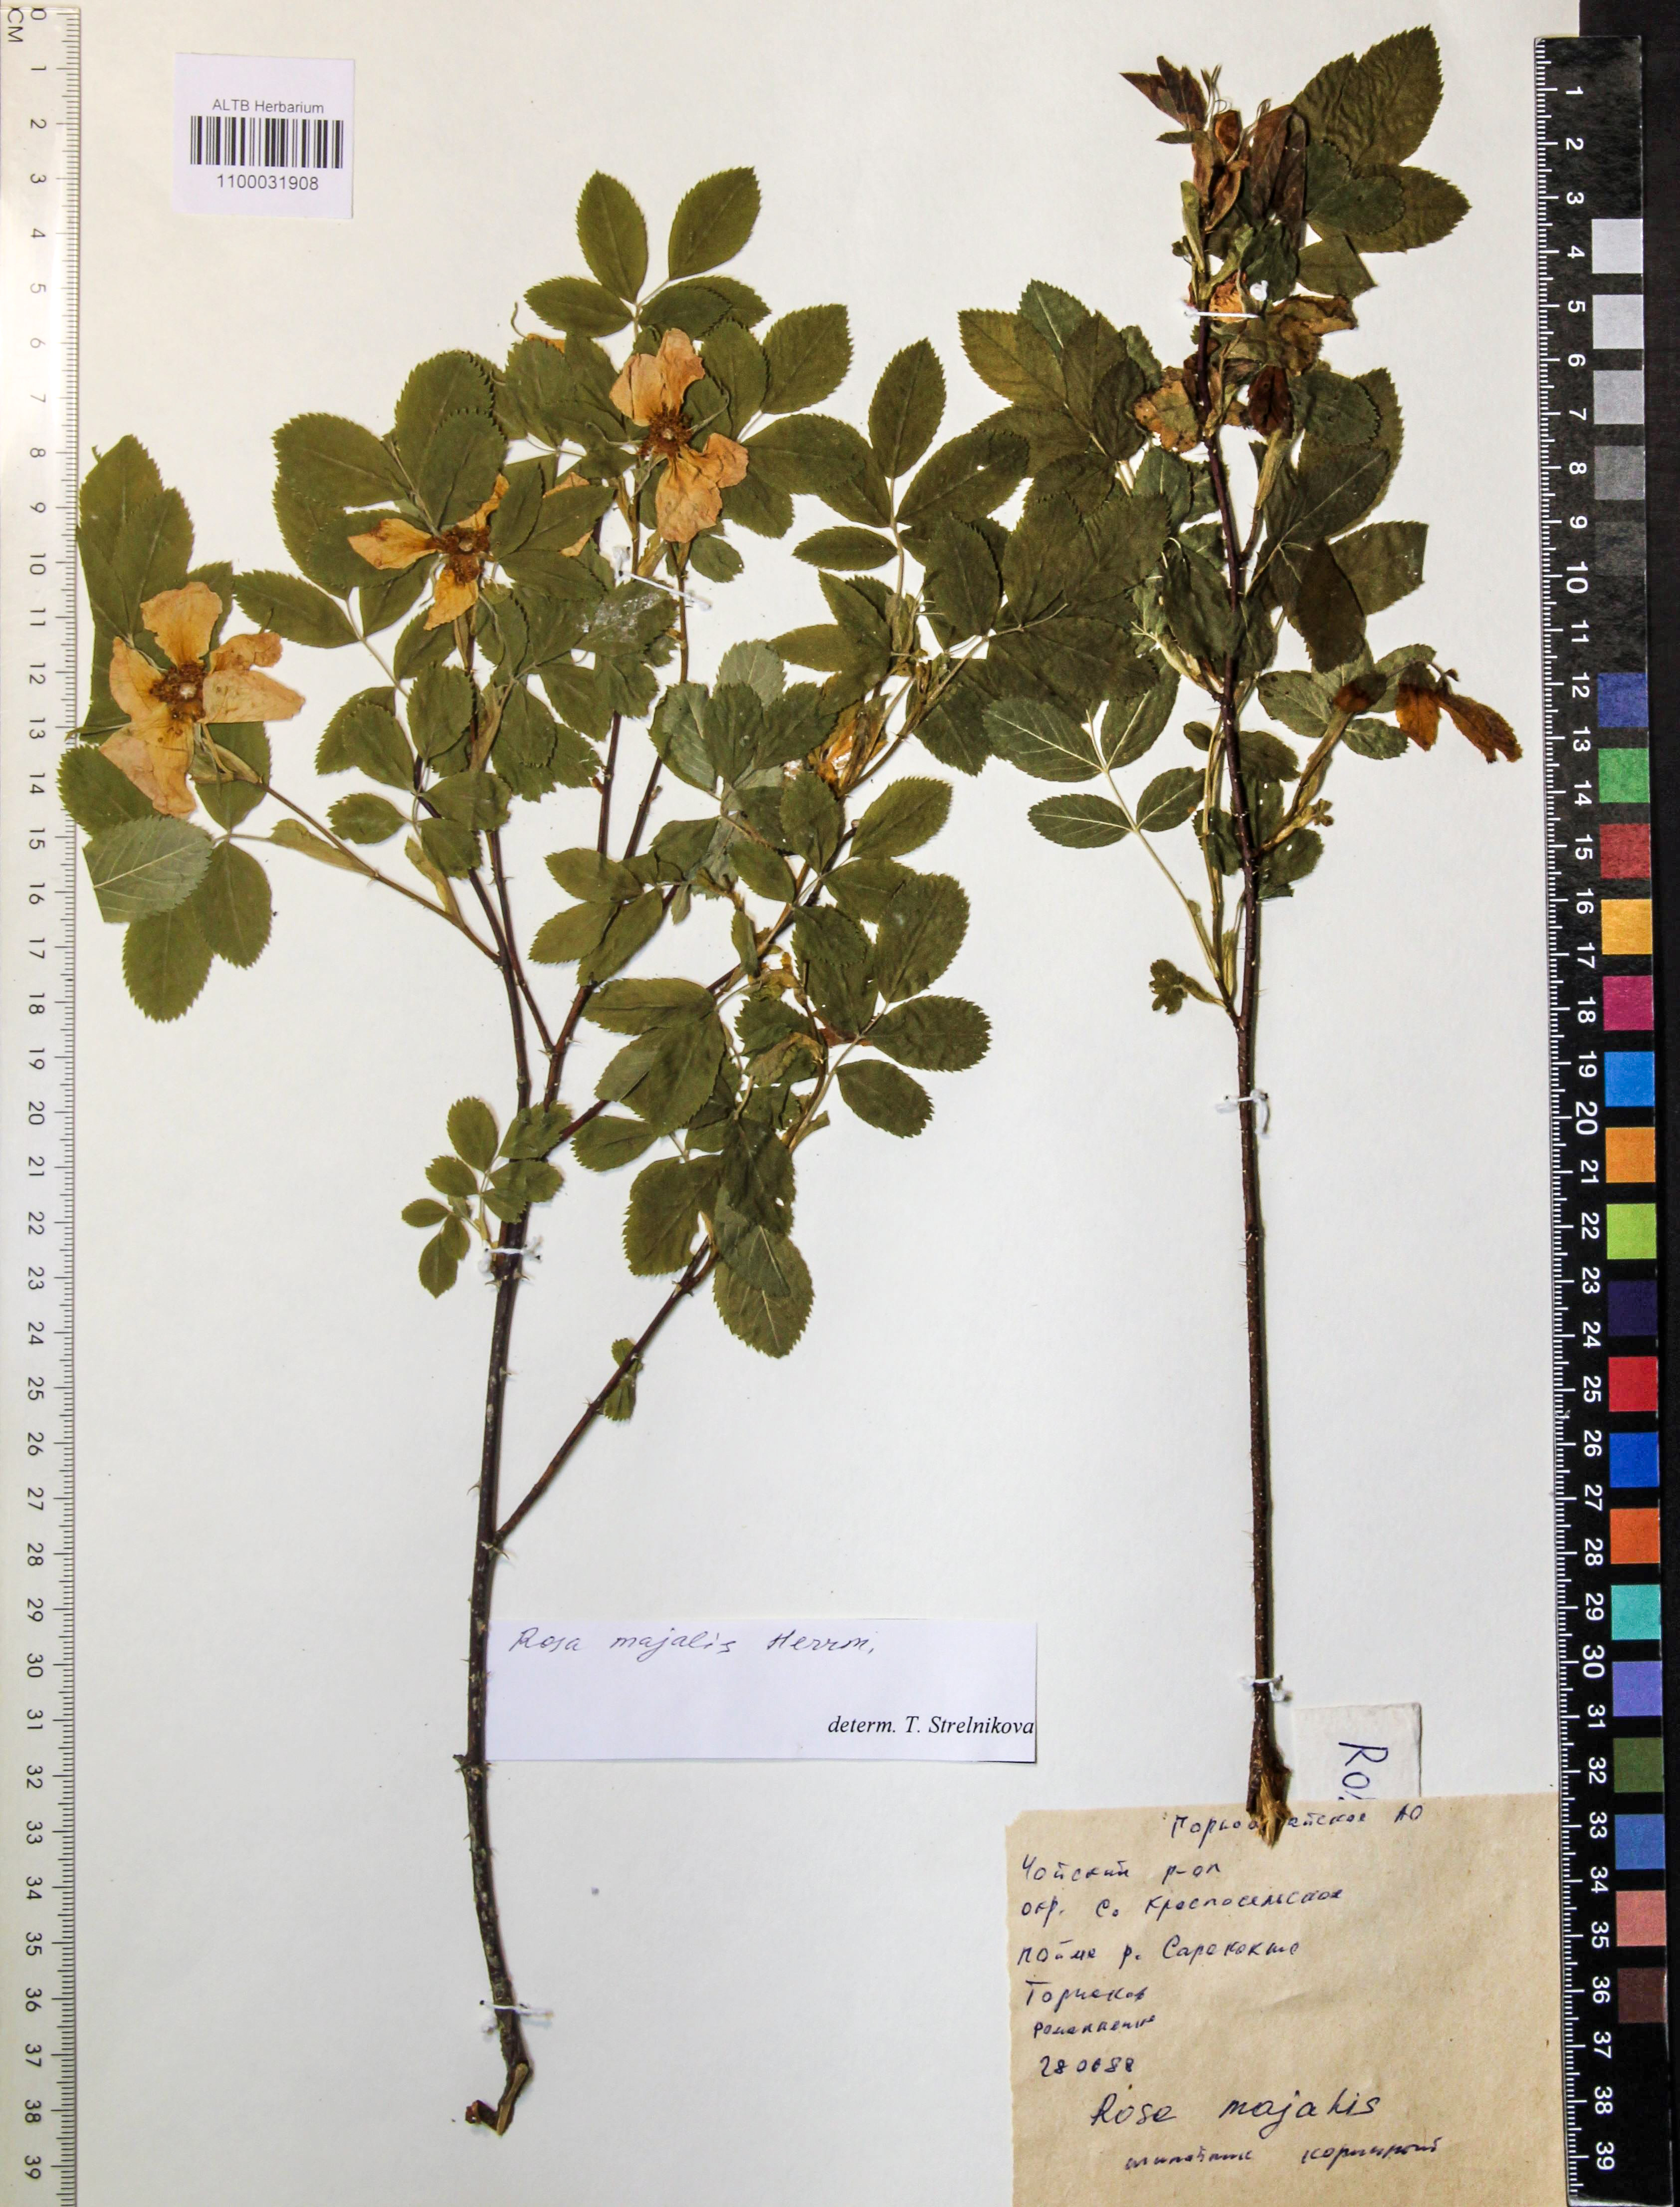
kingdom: Plantae
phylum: Tracheophyta
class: Magnoliopsida
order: Rosales
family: Rosaceae
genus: Rosa
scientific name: Rosa majalis
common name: Cinnamon rose
